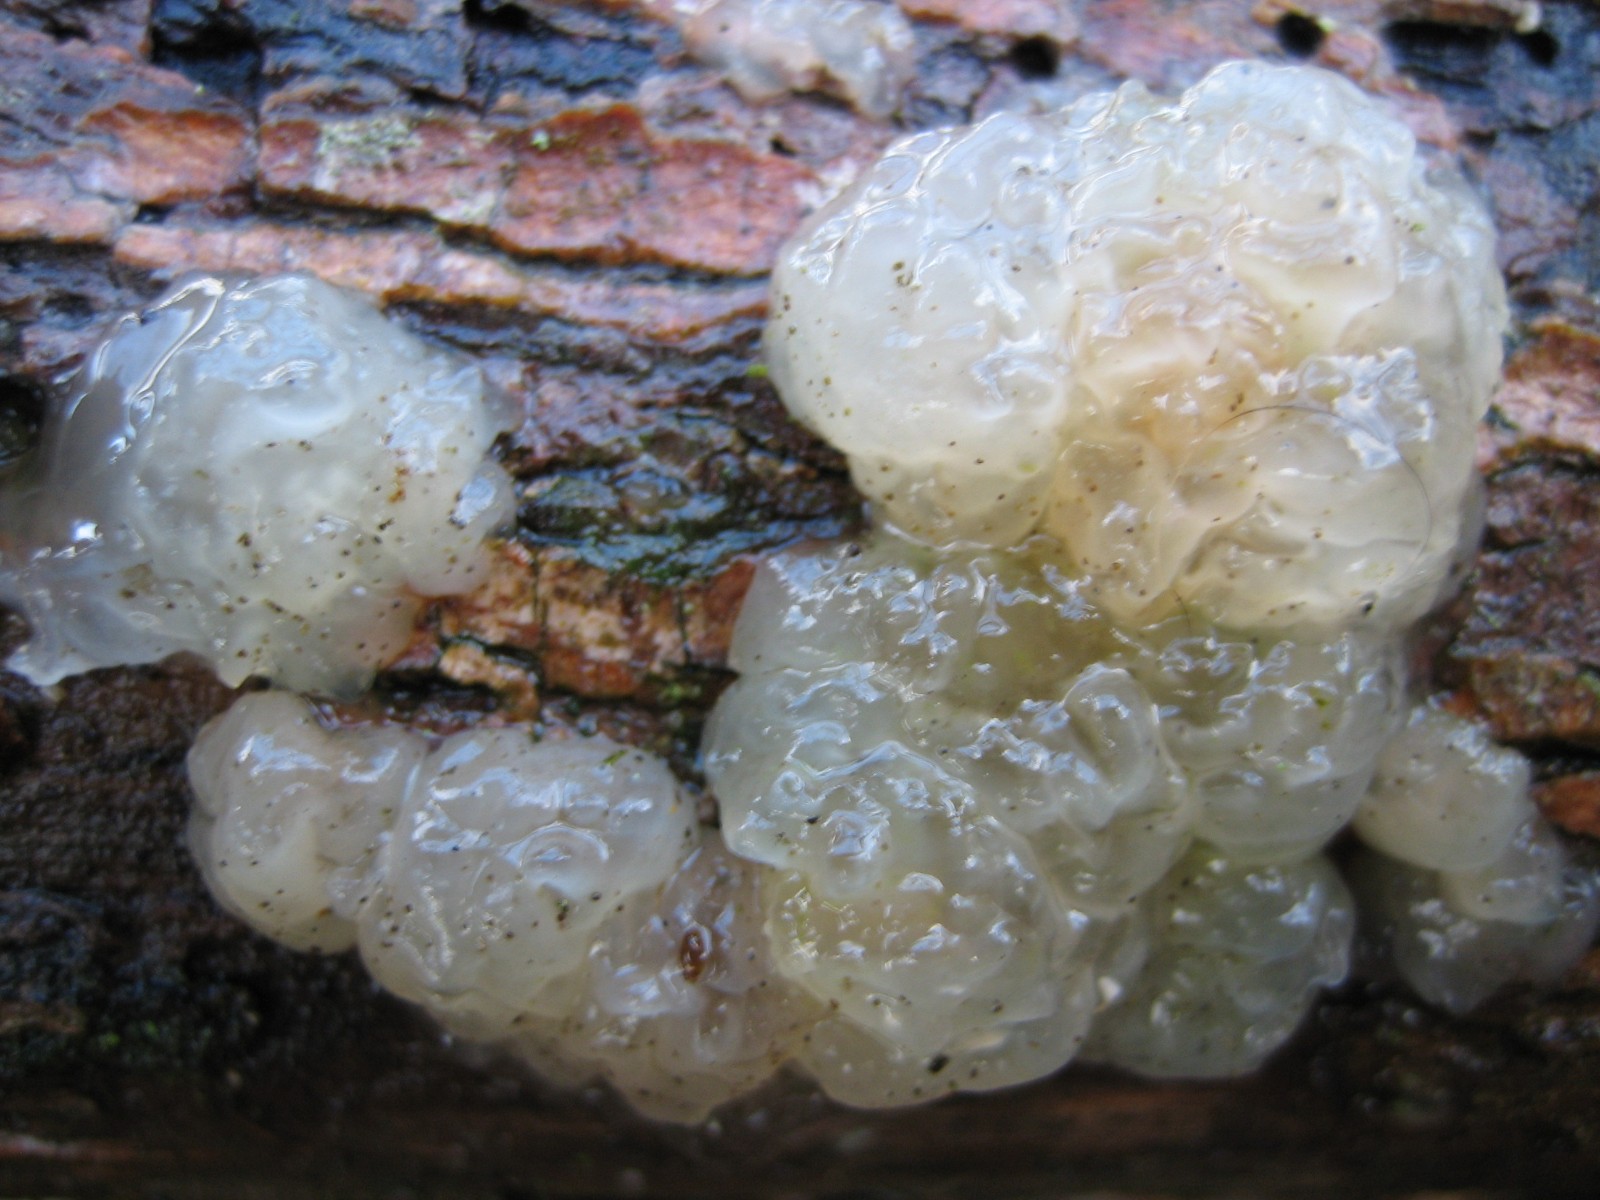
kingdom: Fungi
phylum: Basidiomycota
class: Agaricomycetes
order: Auriculariales
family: Hyaloriaceae
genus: Myxarium
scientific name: Myxarium
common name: bævretop
